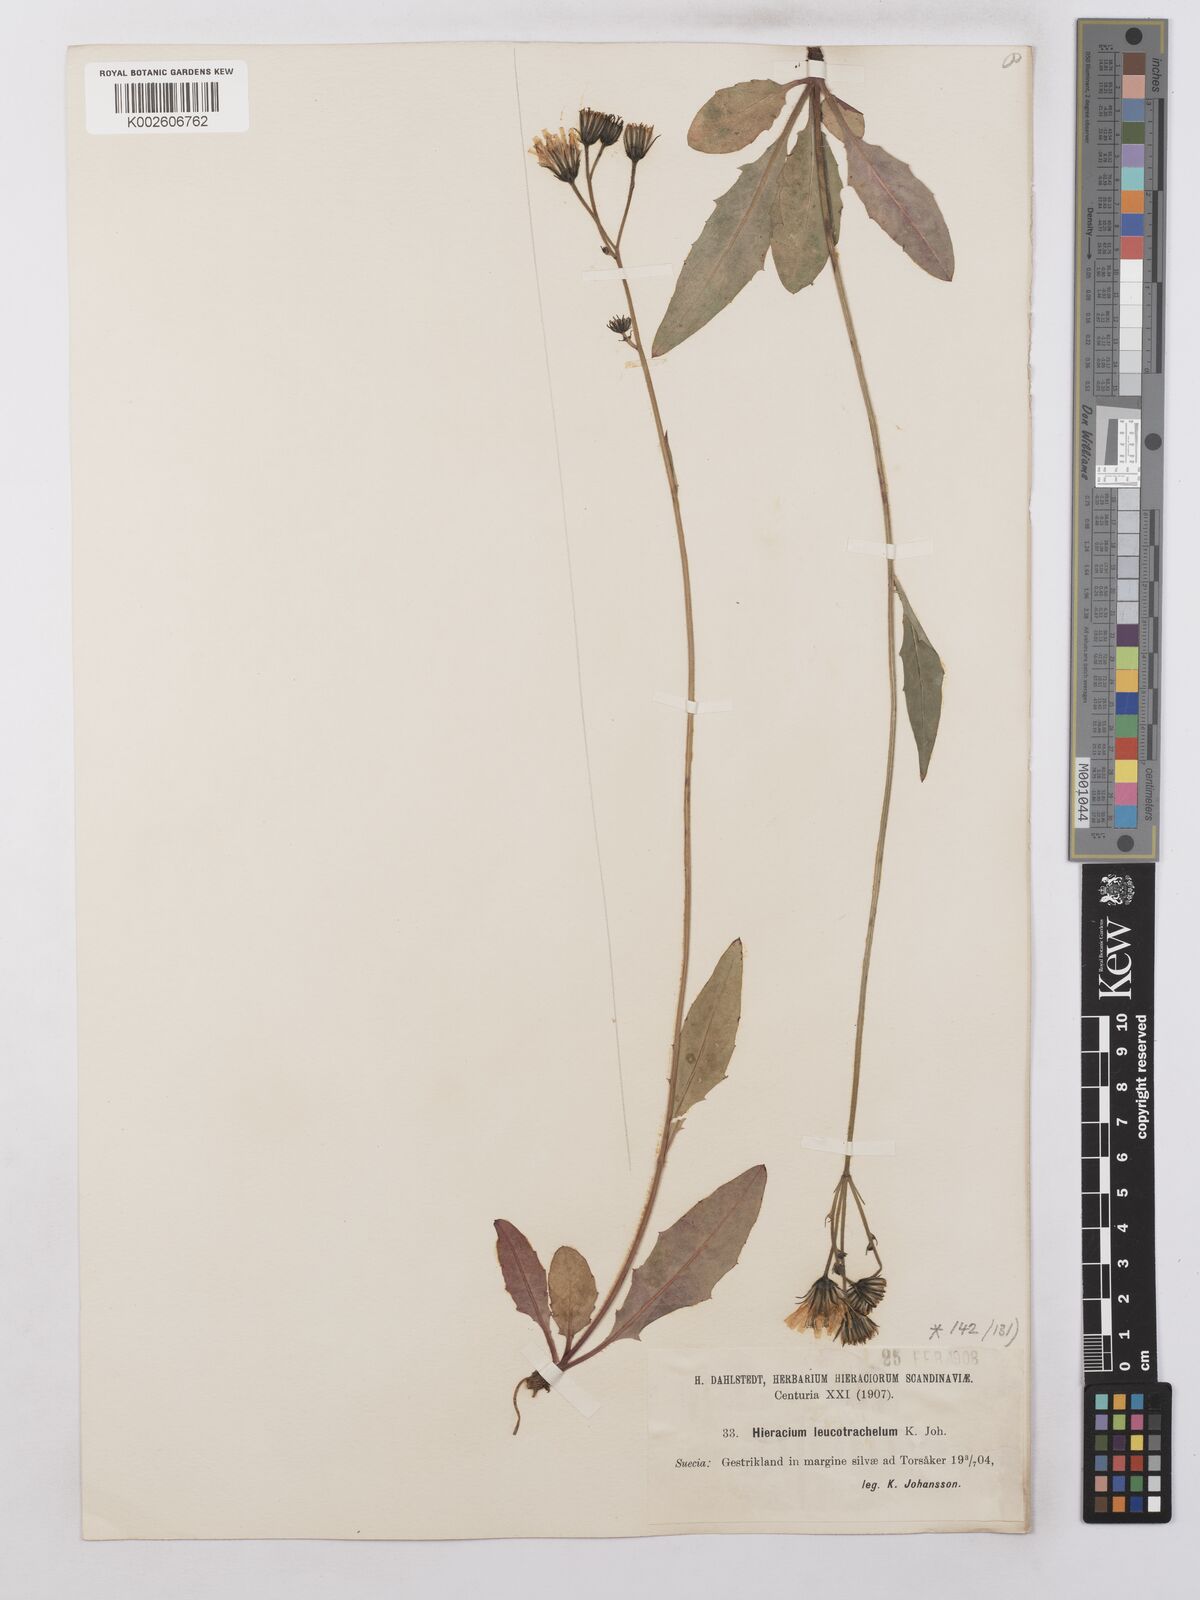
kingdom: Plantae
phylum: Tracheophyta
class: Magnoliopsida
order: Asterales
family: Asteraceae
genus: Hieracium
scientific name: Hieracium lachenalii
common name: Common hawkweed
